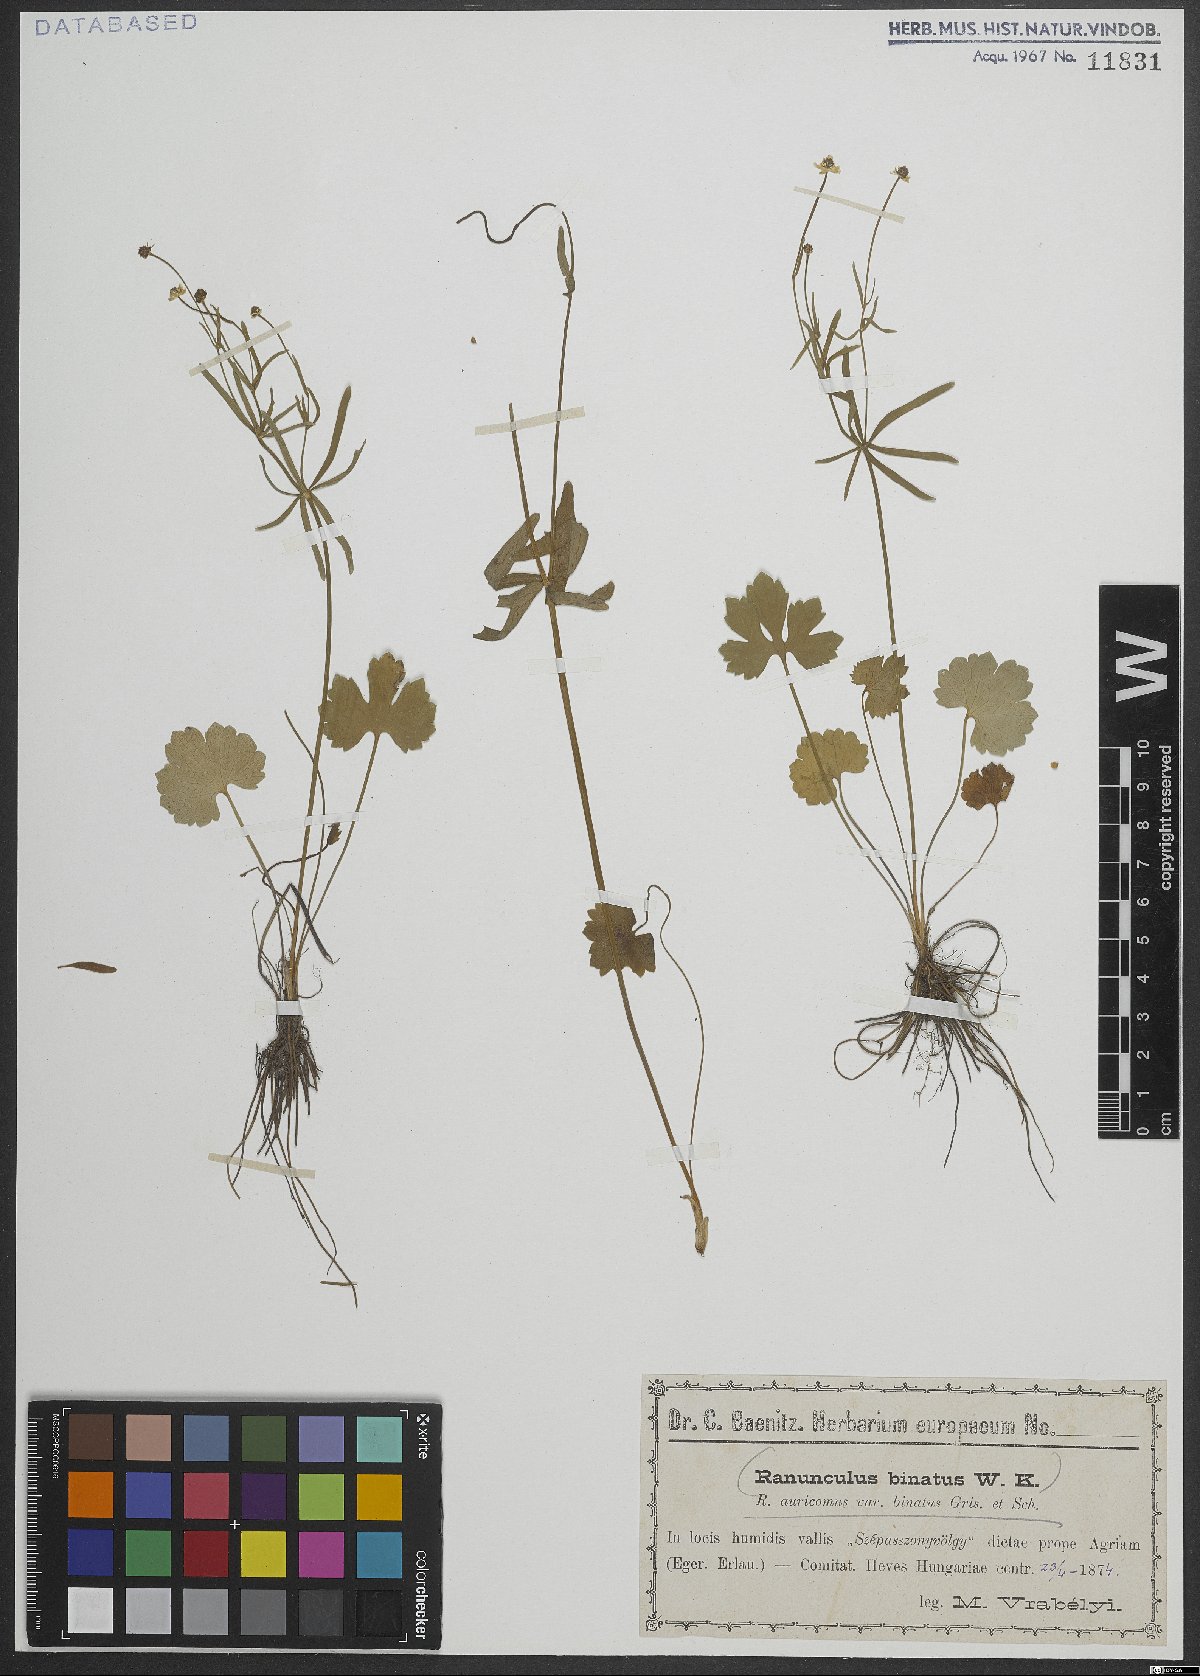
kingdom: Plantae
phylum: Tracheophyta
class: Magnoliopsida
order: Ranunculales
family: Ranunculaceae
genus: Ranunculus
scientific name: Ranunculus binatus
